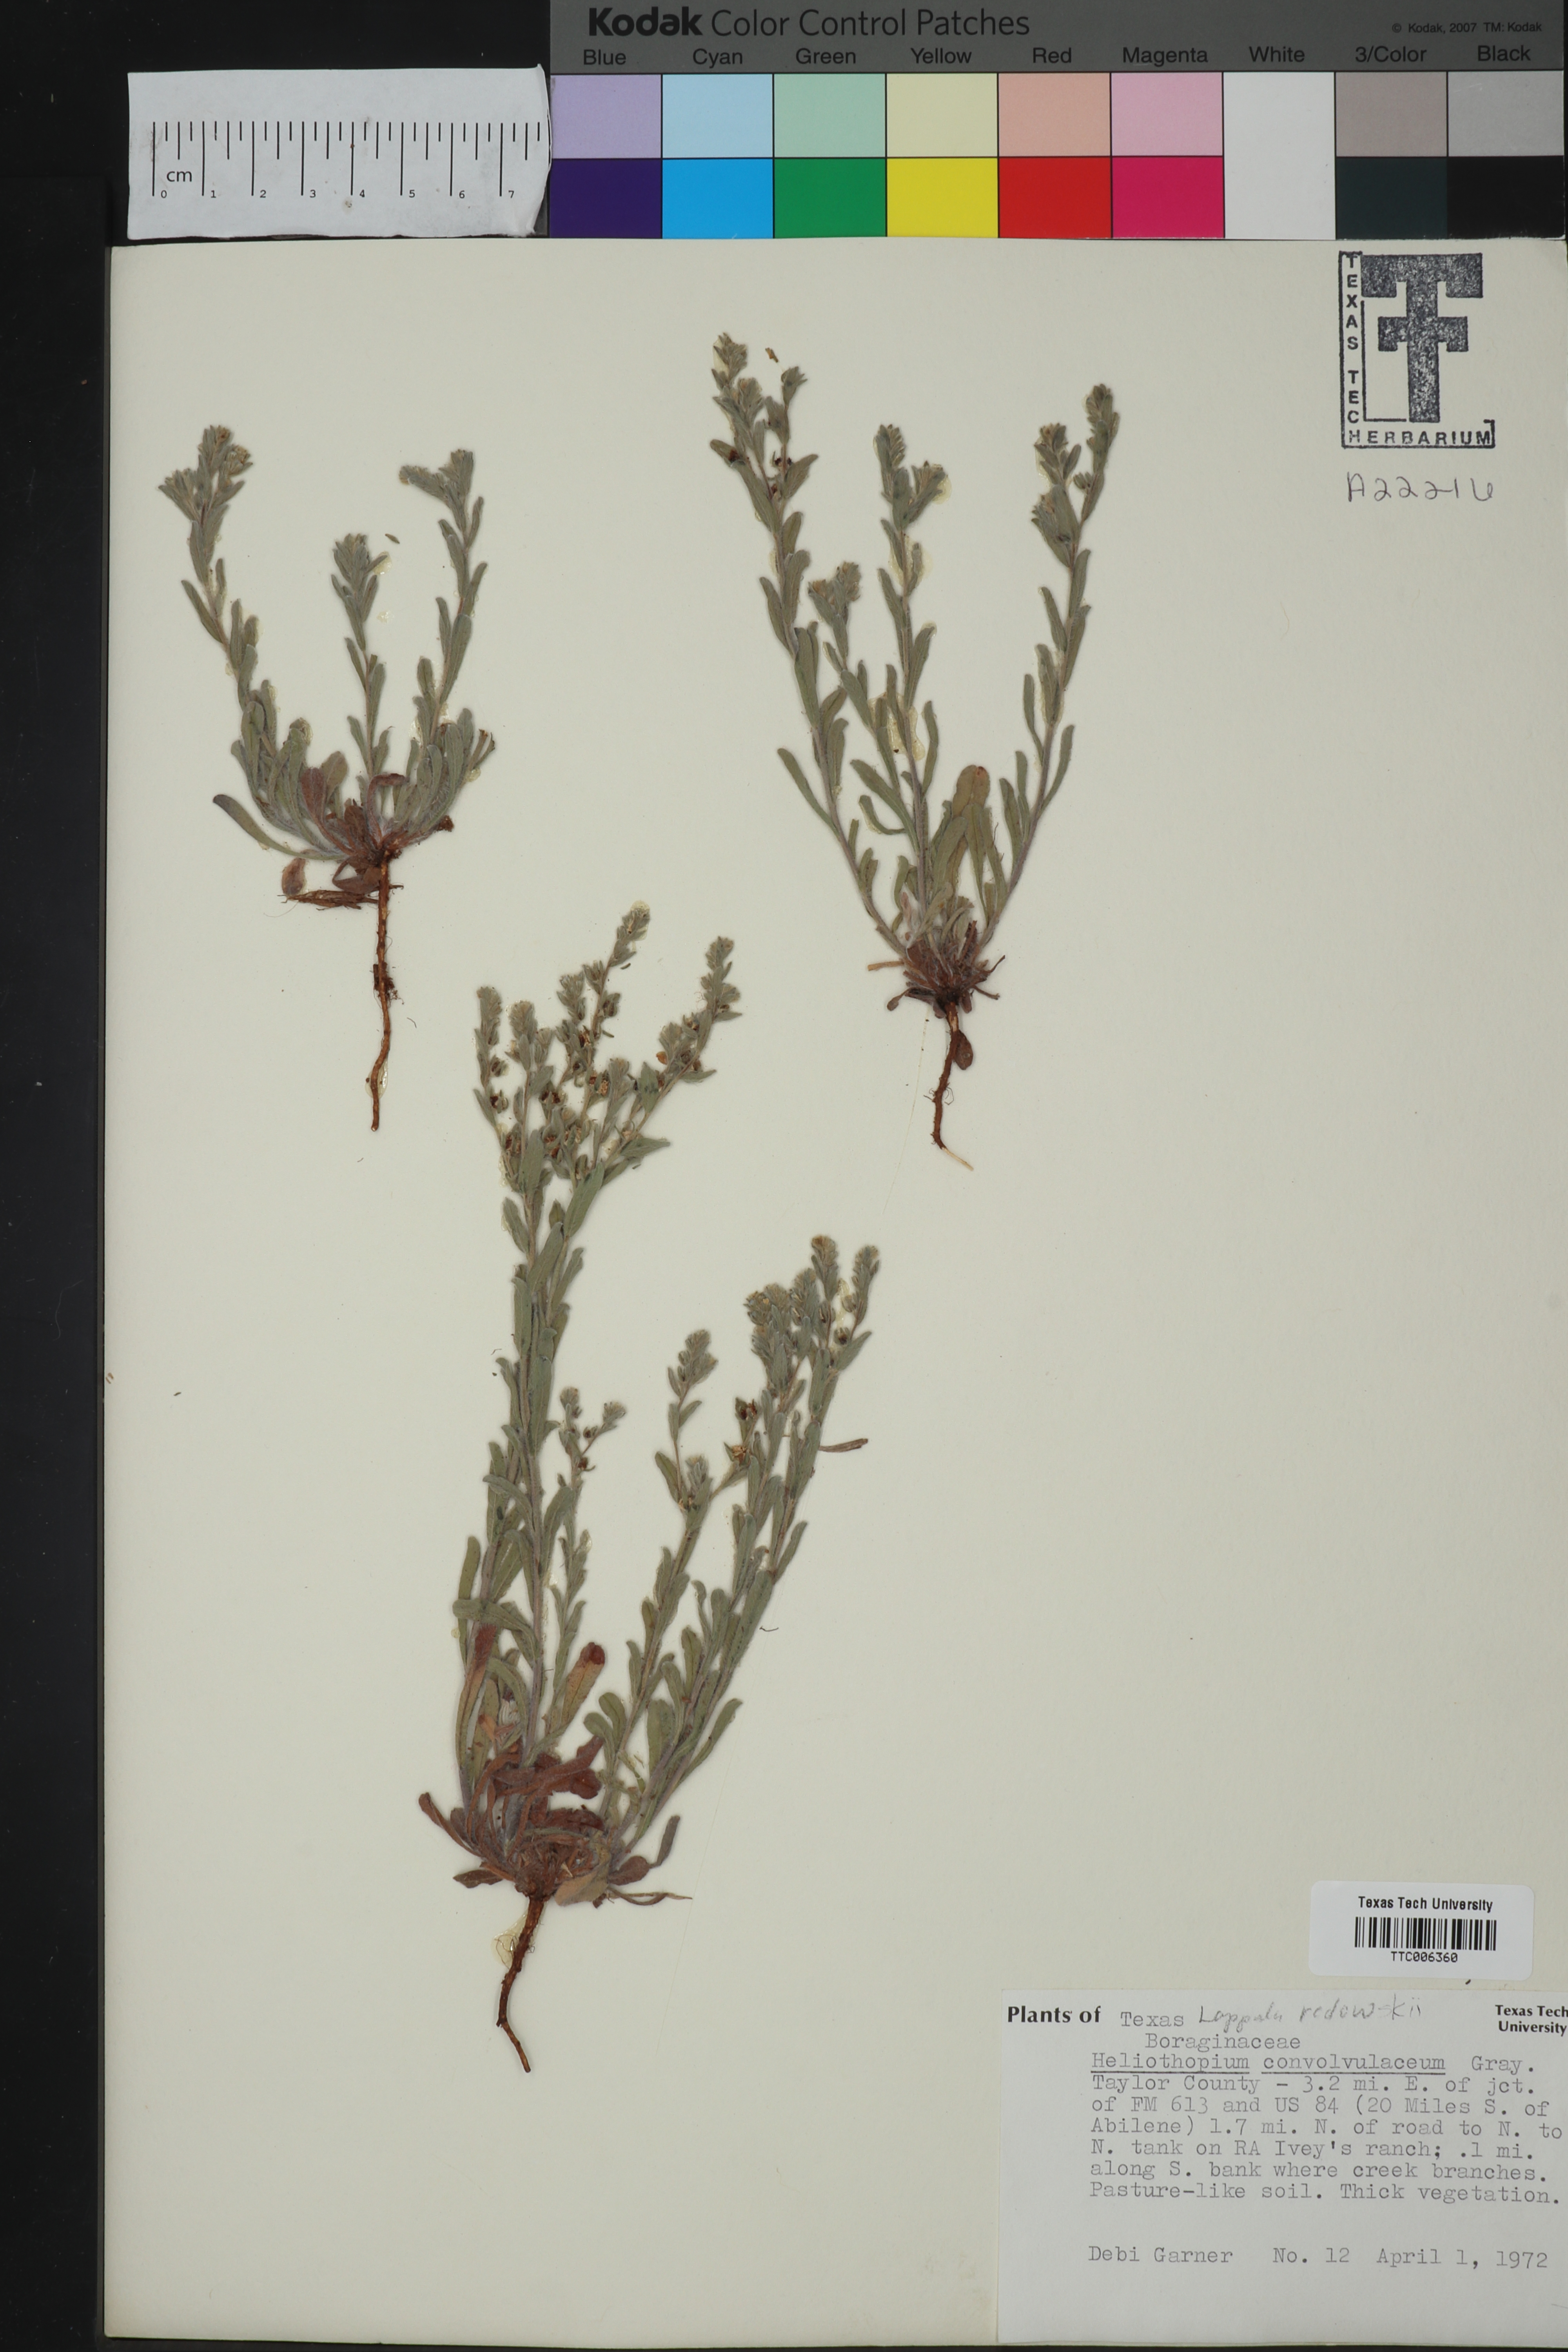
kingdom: Plantae
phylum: Tracheophyta
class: Magnoliopsida
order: Boraginales
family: Boraginaceae
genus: Lappula
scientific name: Lappula redowskii
